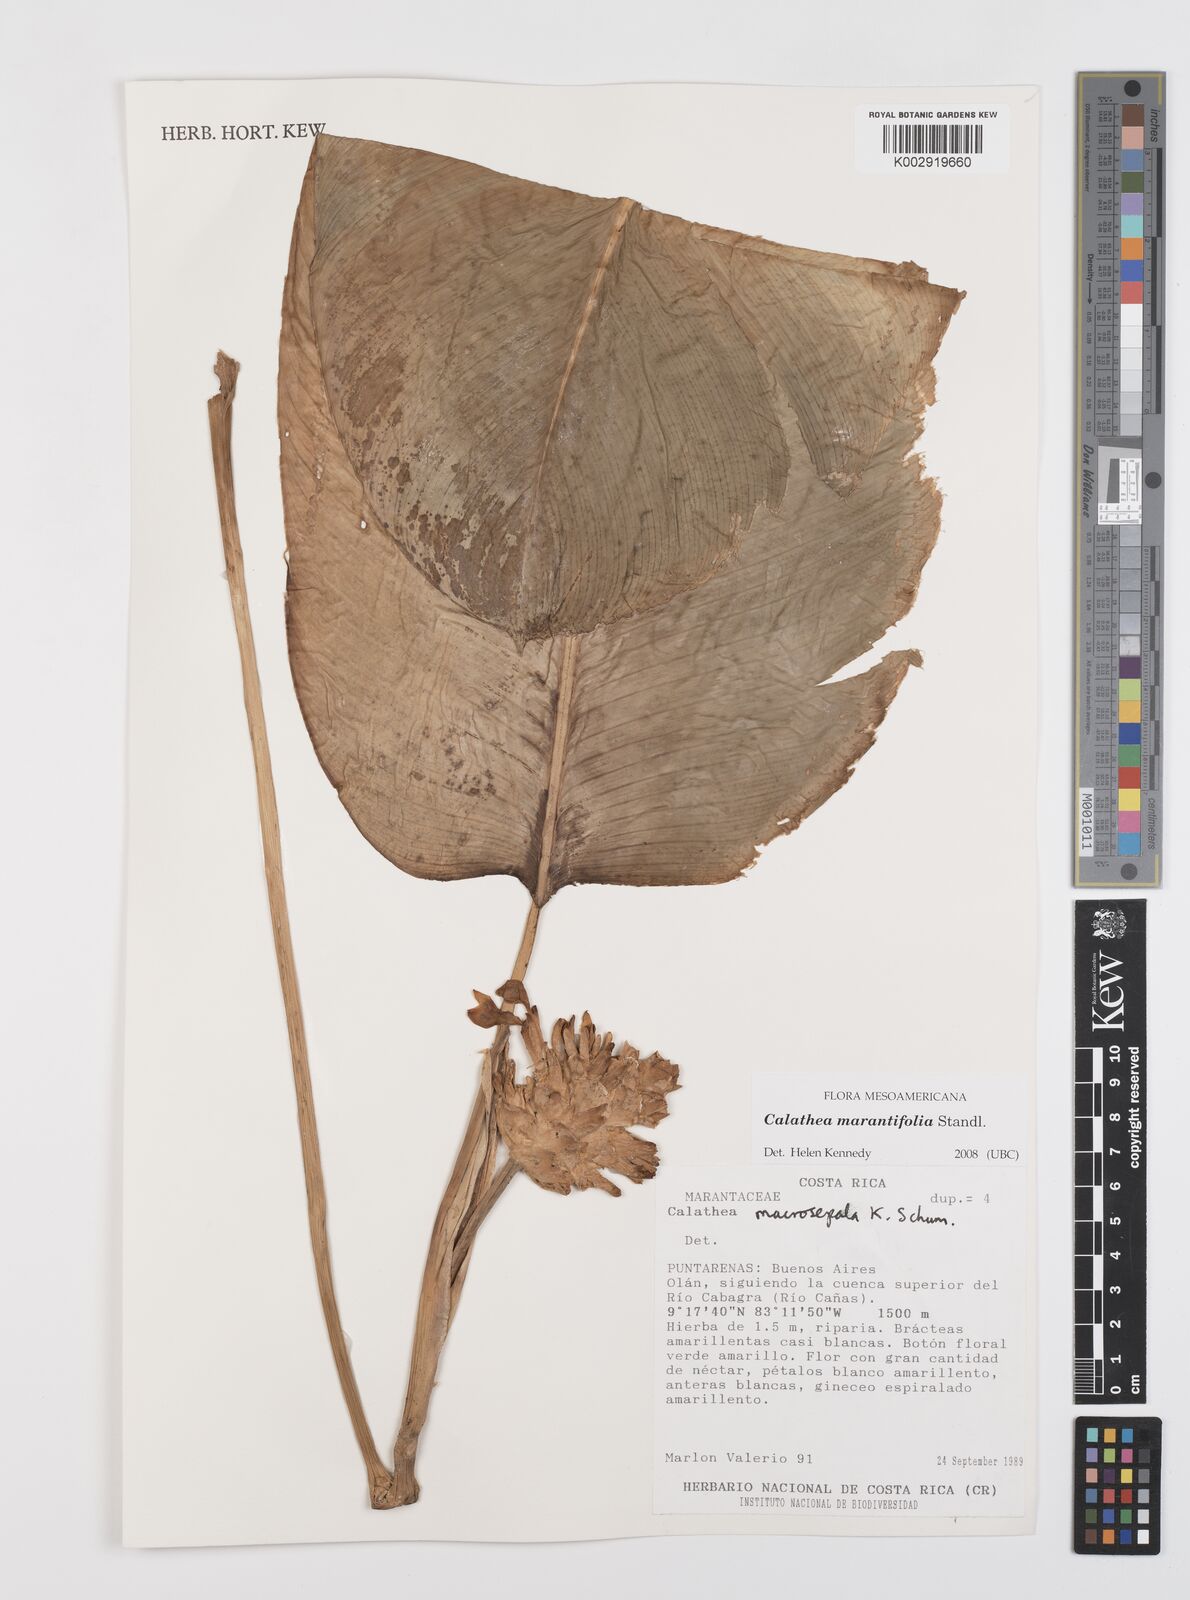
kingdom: Plantae
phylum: Tracheophyta
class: Liliopsida
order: Zingiberales
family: Marantaceae
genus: Goeppertia
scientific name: Goeppertia marantifolia
